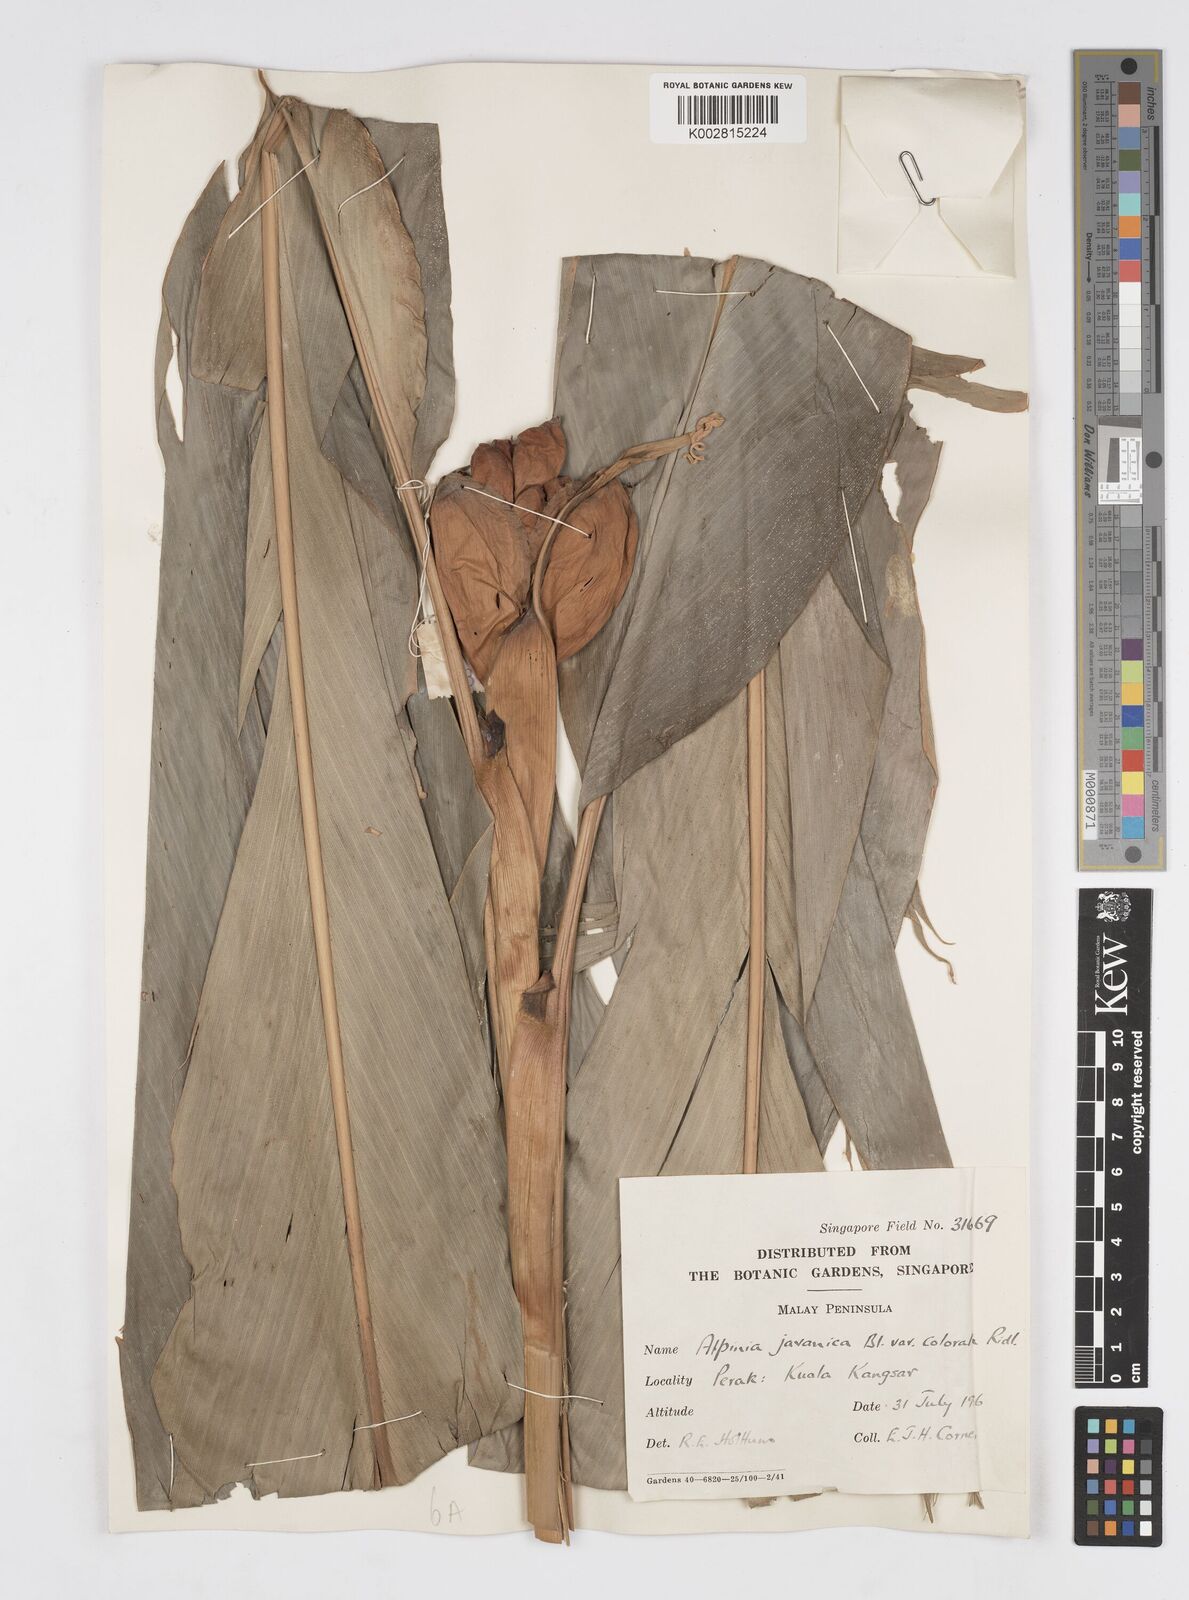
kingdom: Plantae
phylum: Tracheophyta
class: Liliopsida
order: Zingiberales
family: Zingiberaceae
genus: Alpinia
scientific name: Alpinia javanica
